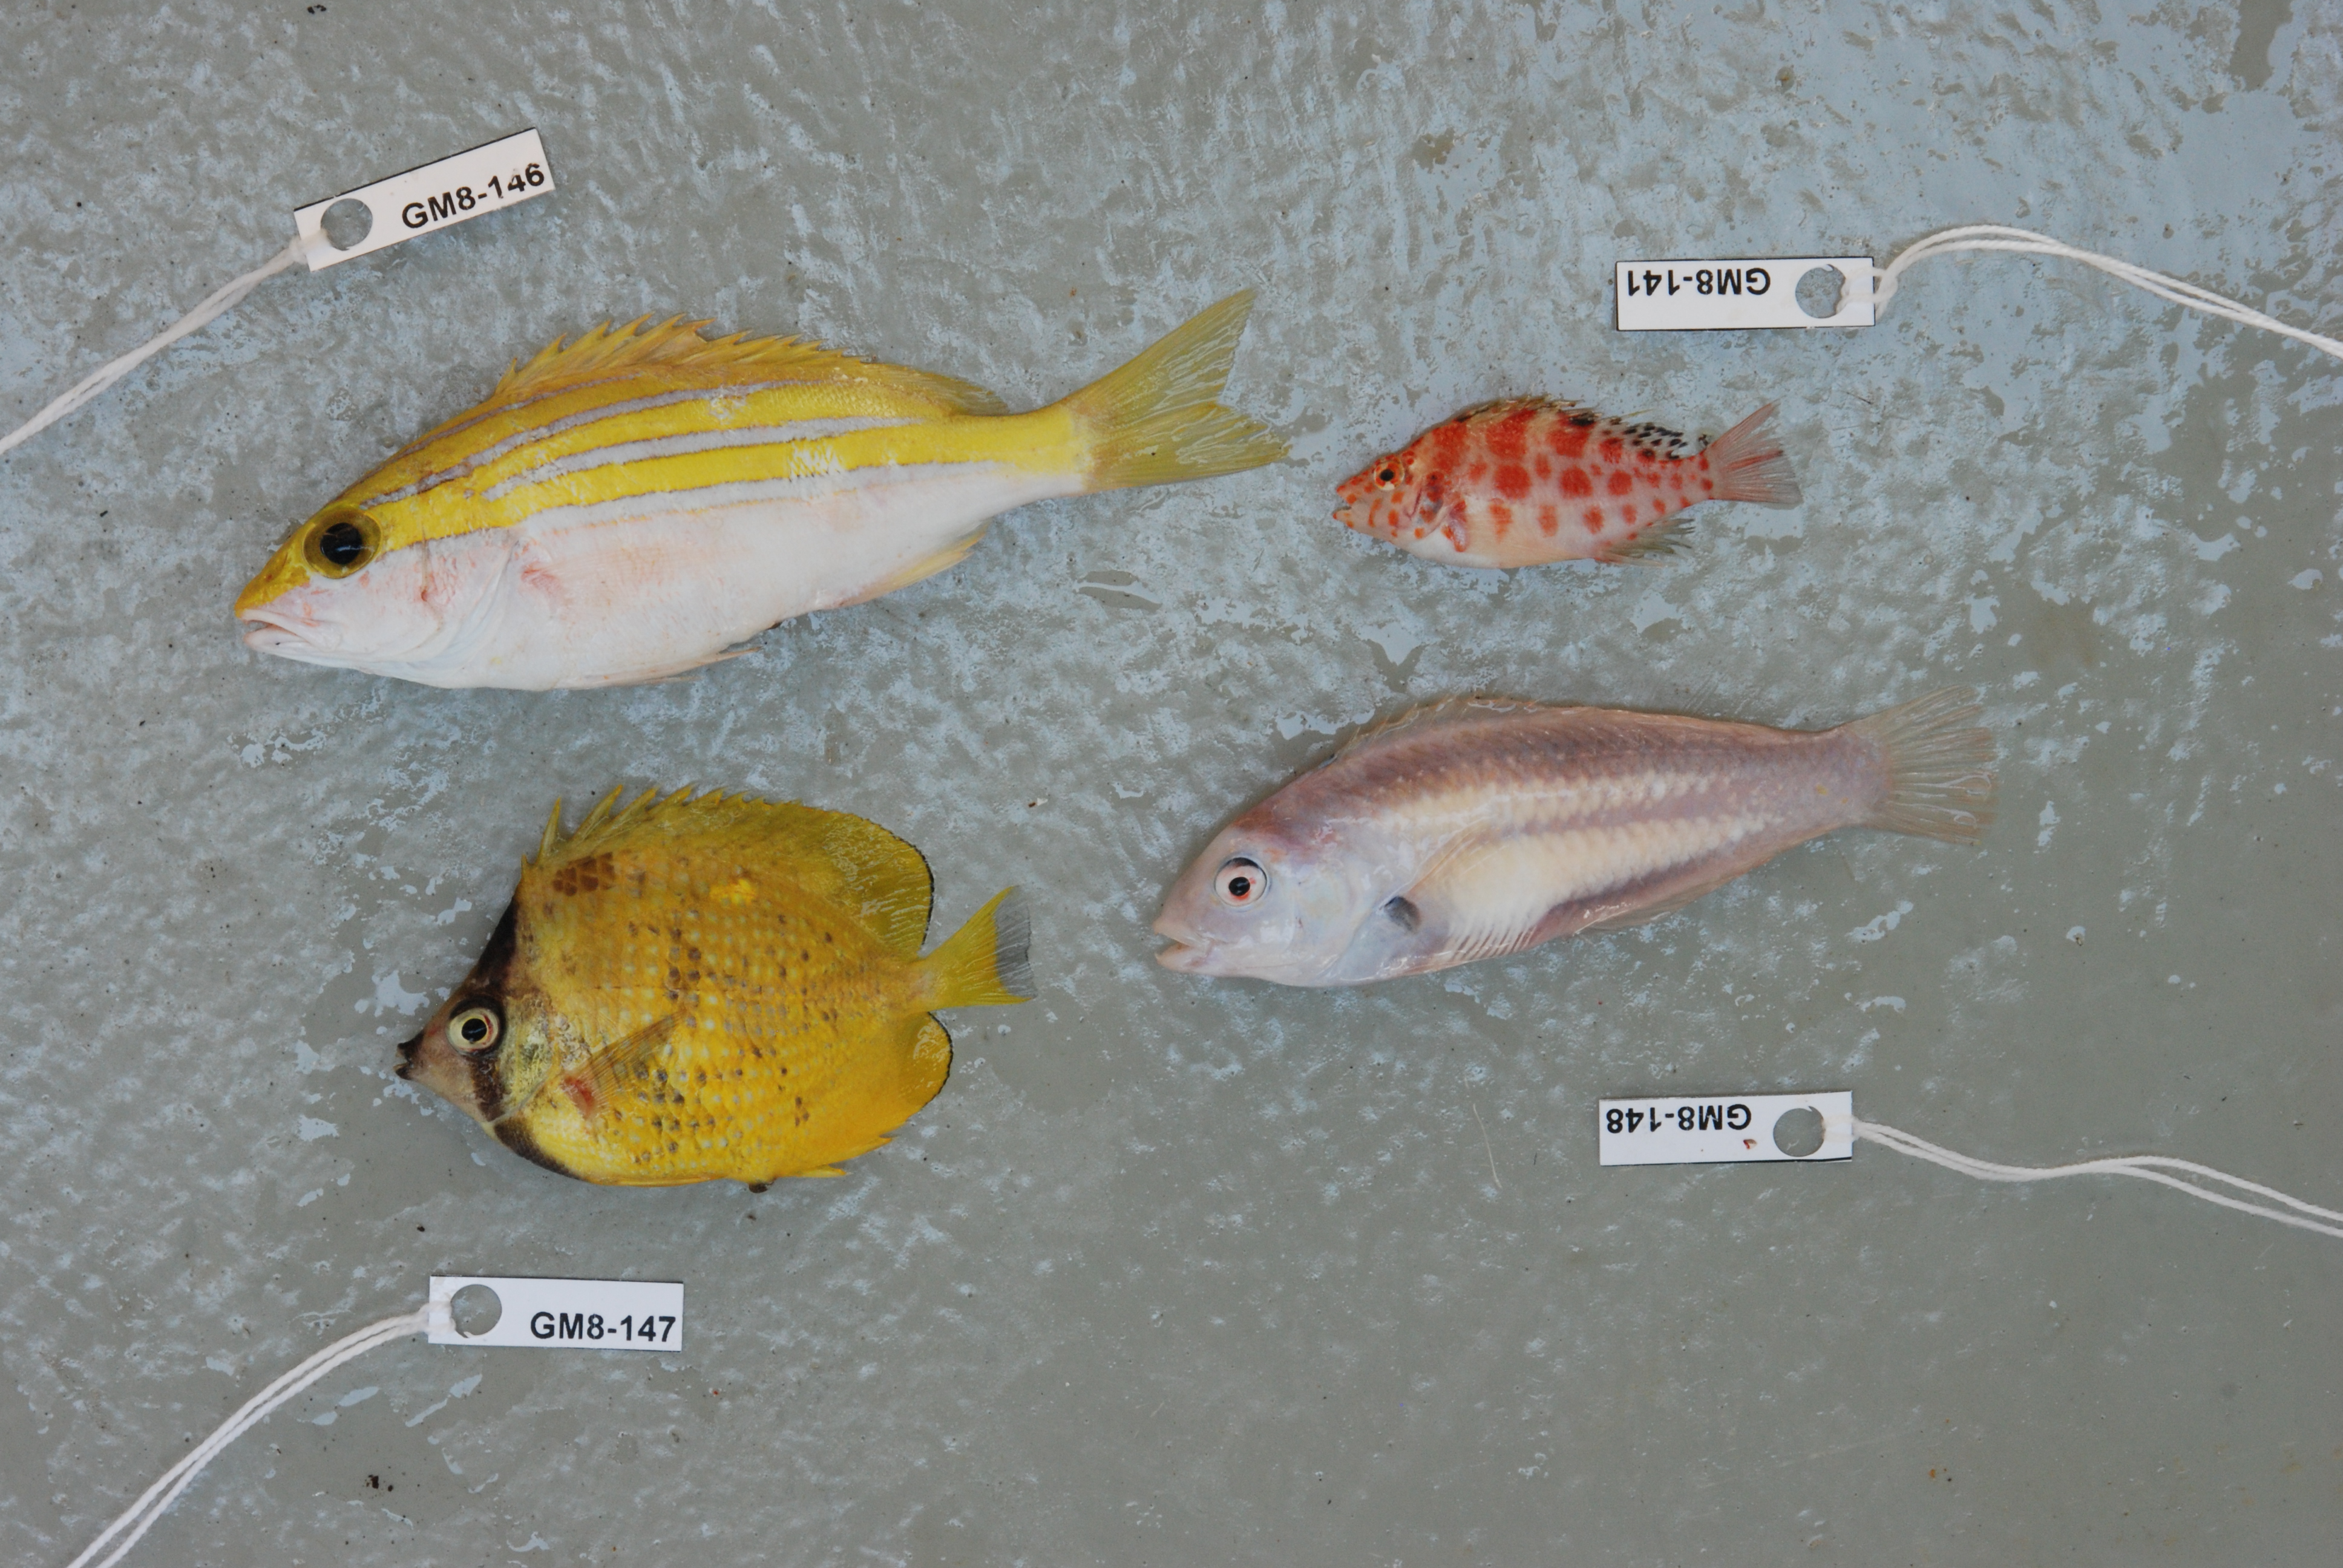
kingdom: Animalia
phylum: Chordata
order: Perciformes
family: Chaetodontidae
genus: Chaetodon
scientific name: Chaetodon kleinii
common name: Klein's butterflyfish
